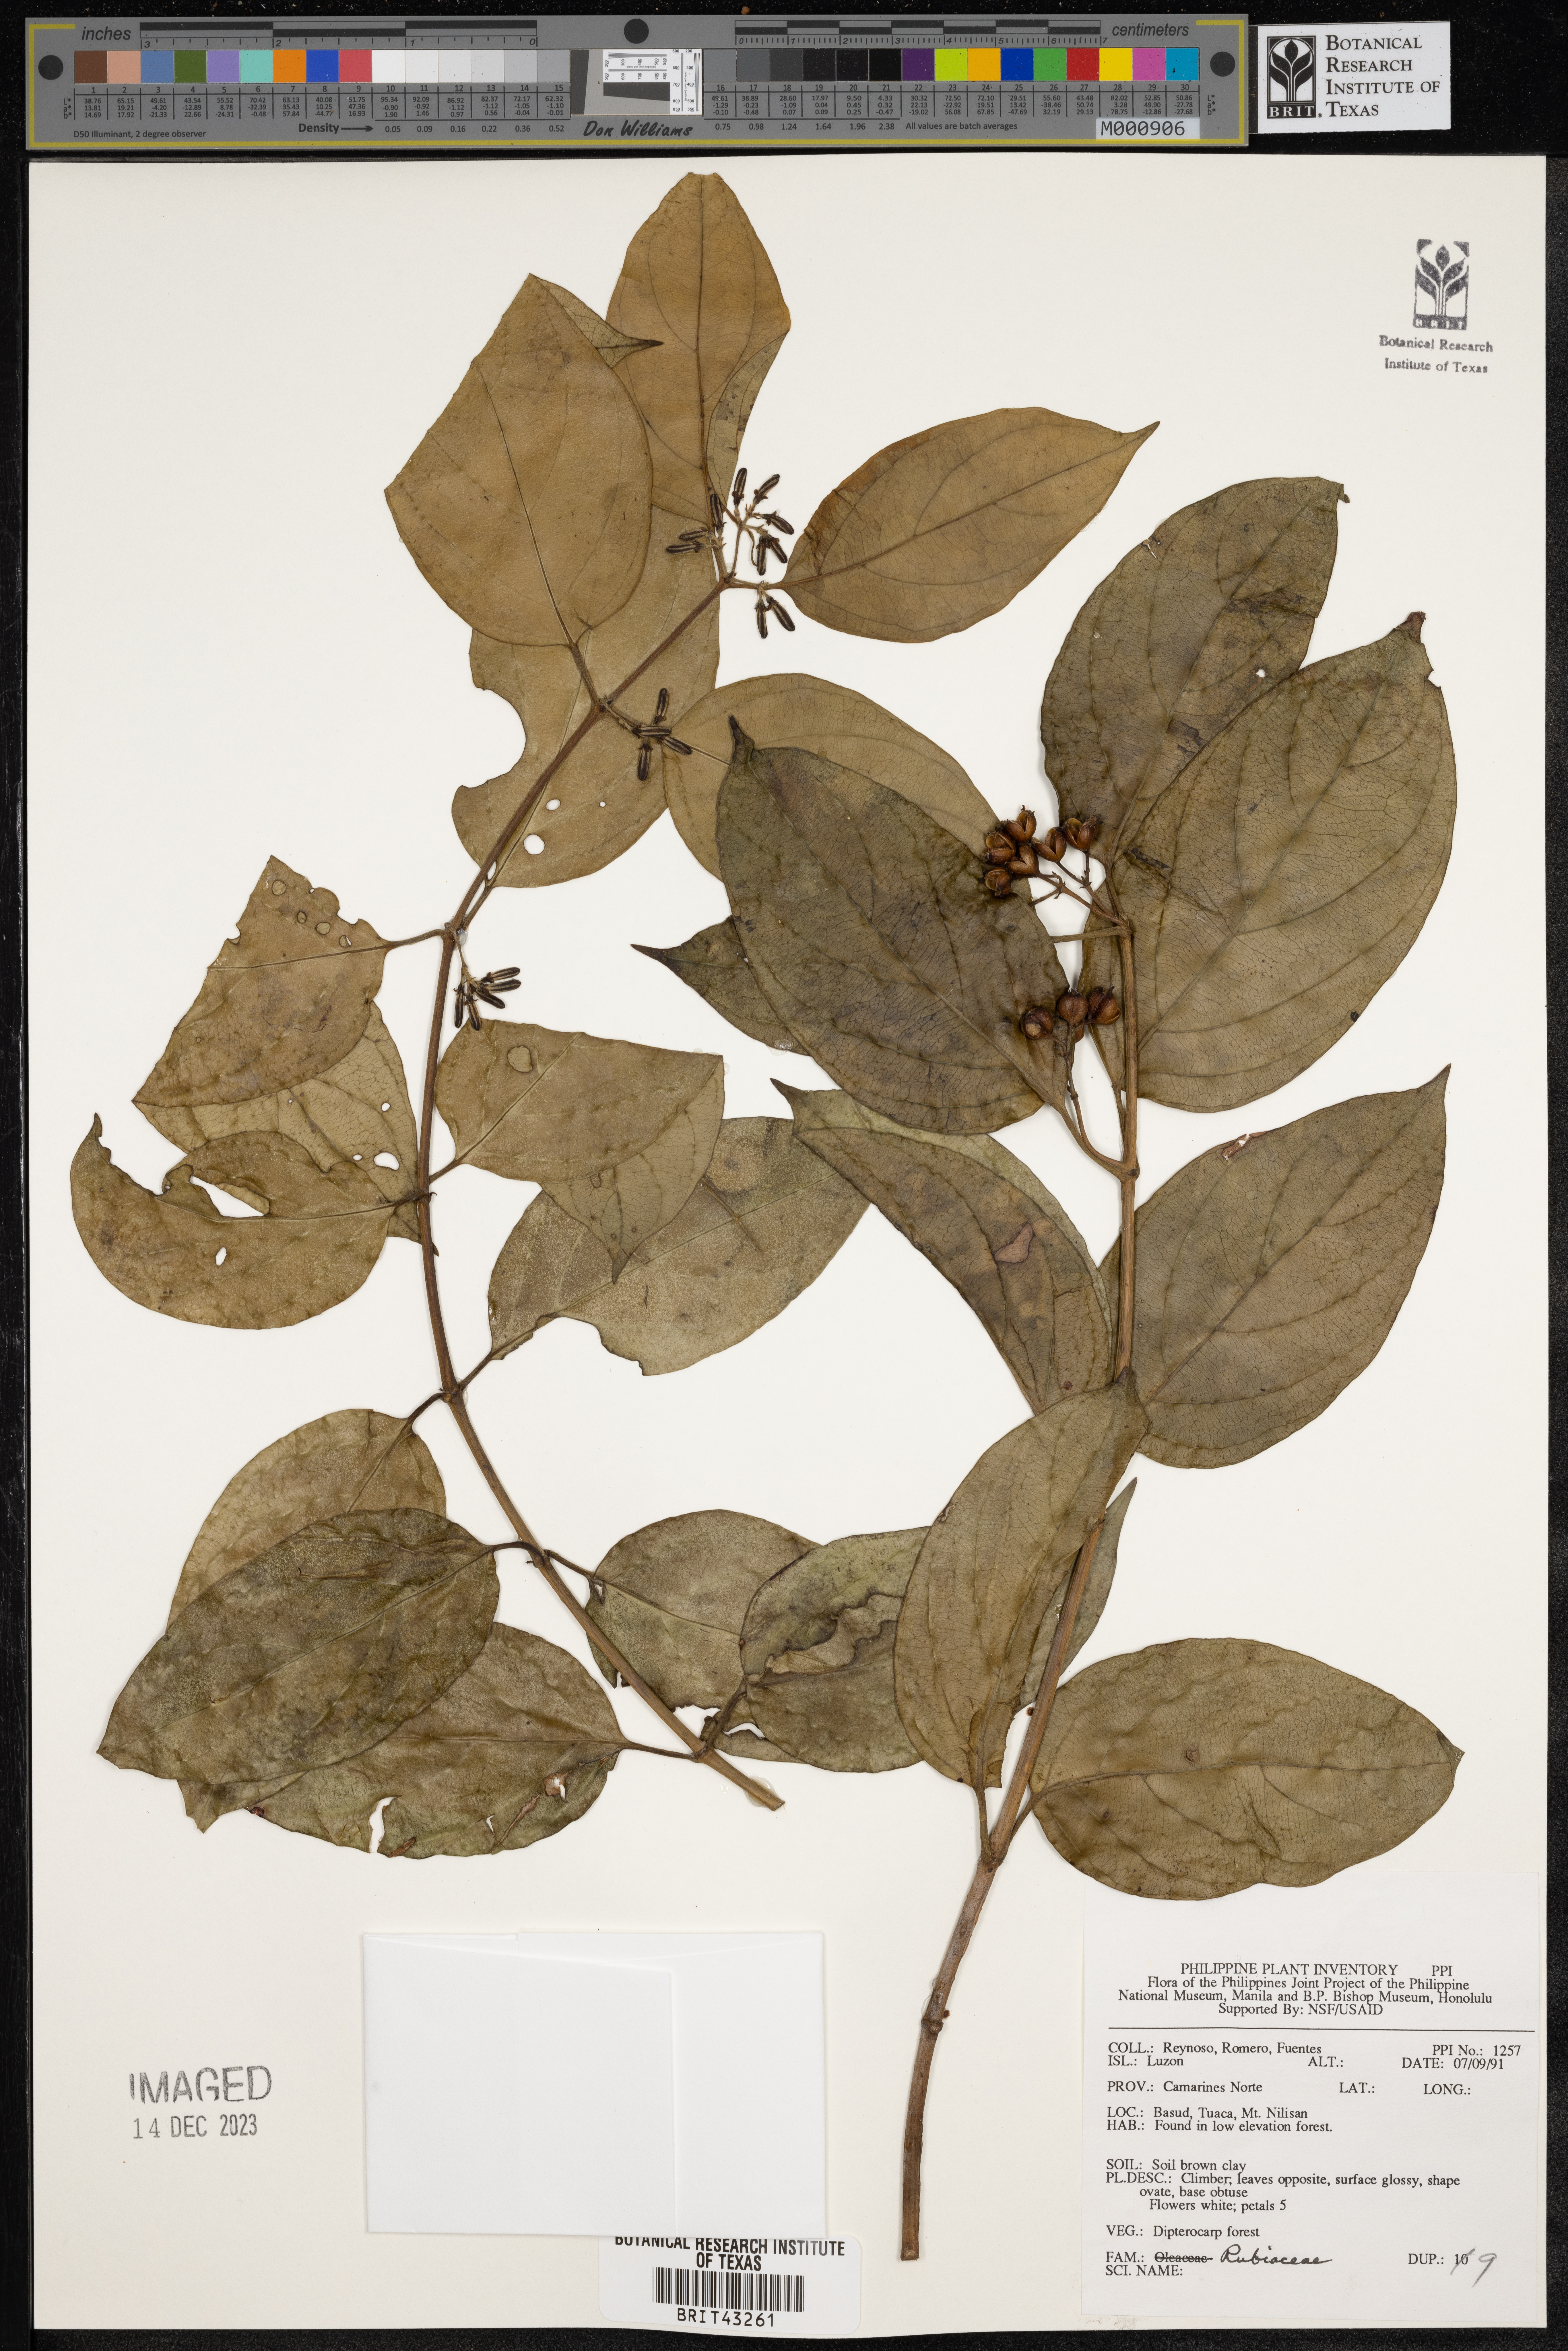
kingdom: Plantae
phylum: Tracheophyta
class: Magnoliopsida
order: Gentianales
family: Rubiaceae
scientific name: Rubiaceae
